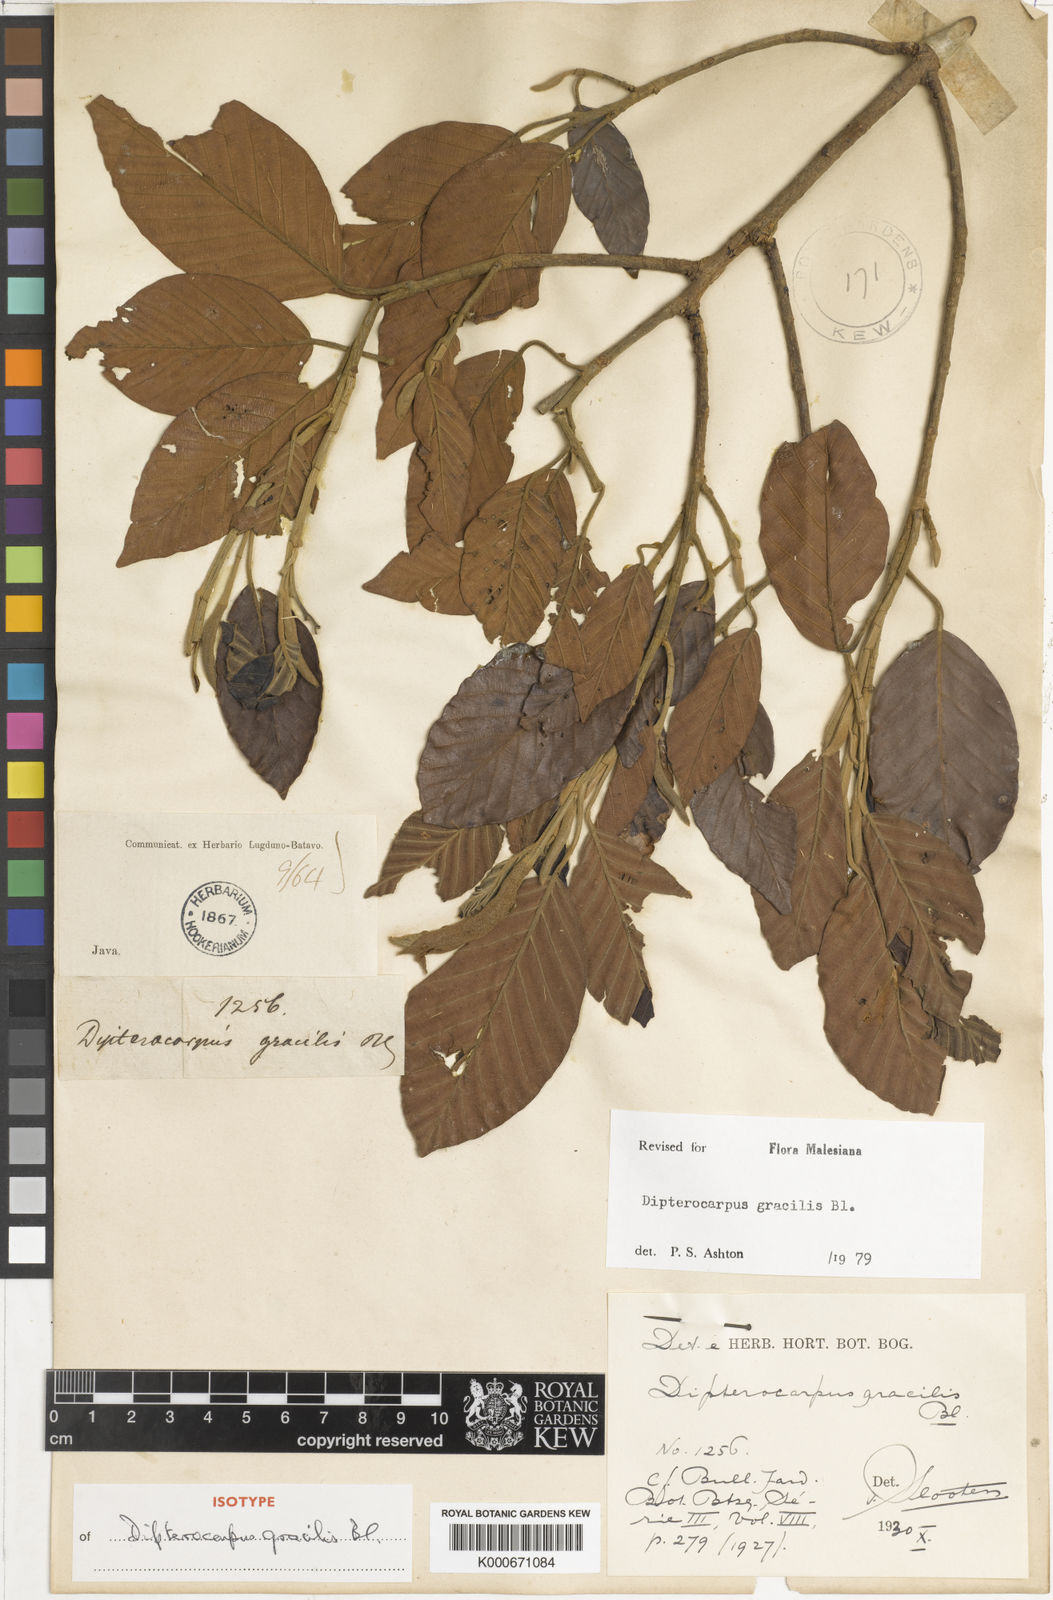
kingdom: Plantae
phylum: Tracheophyta
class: Magnoliopsida
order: Malvales
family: Dipterocarpaceae
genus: Dipterocarpus
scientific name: Dipterocarpus gracilis
